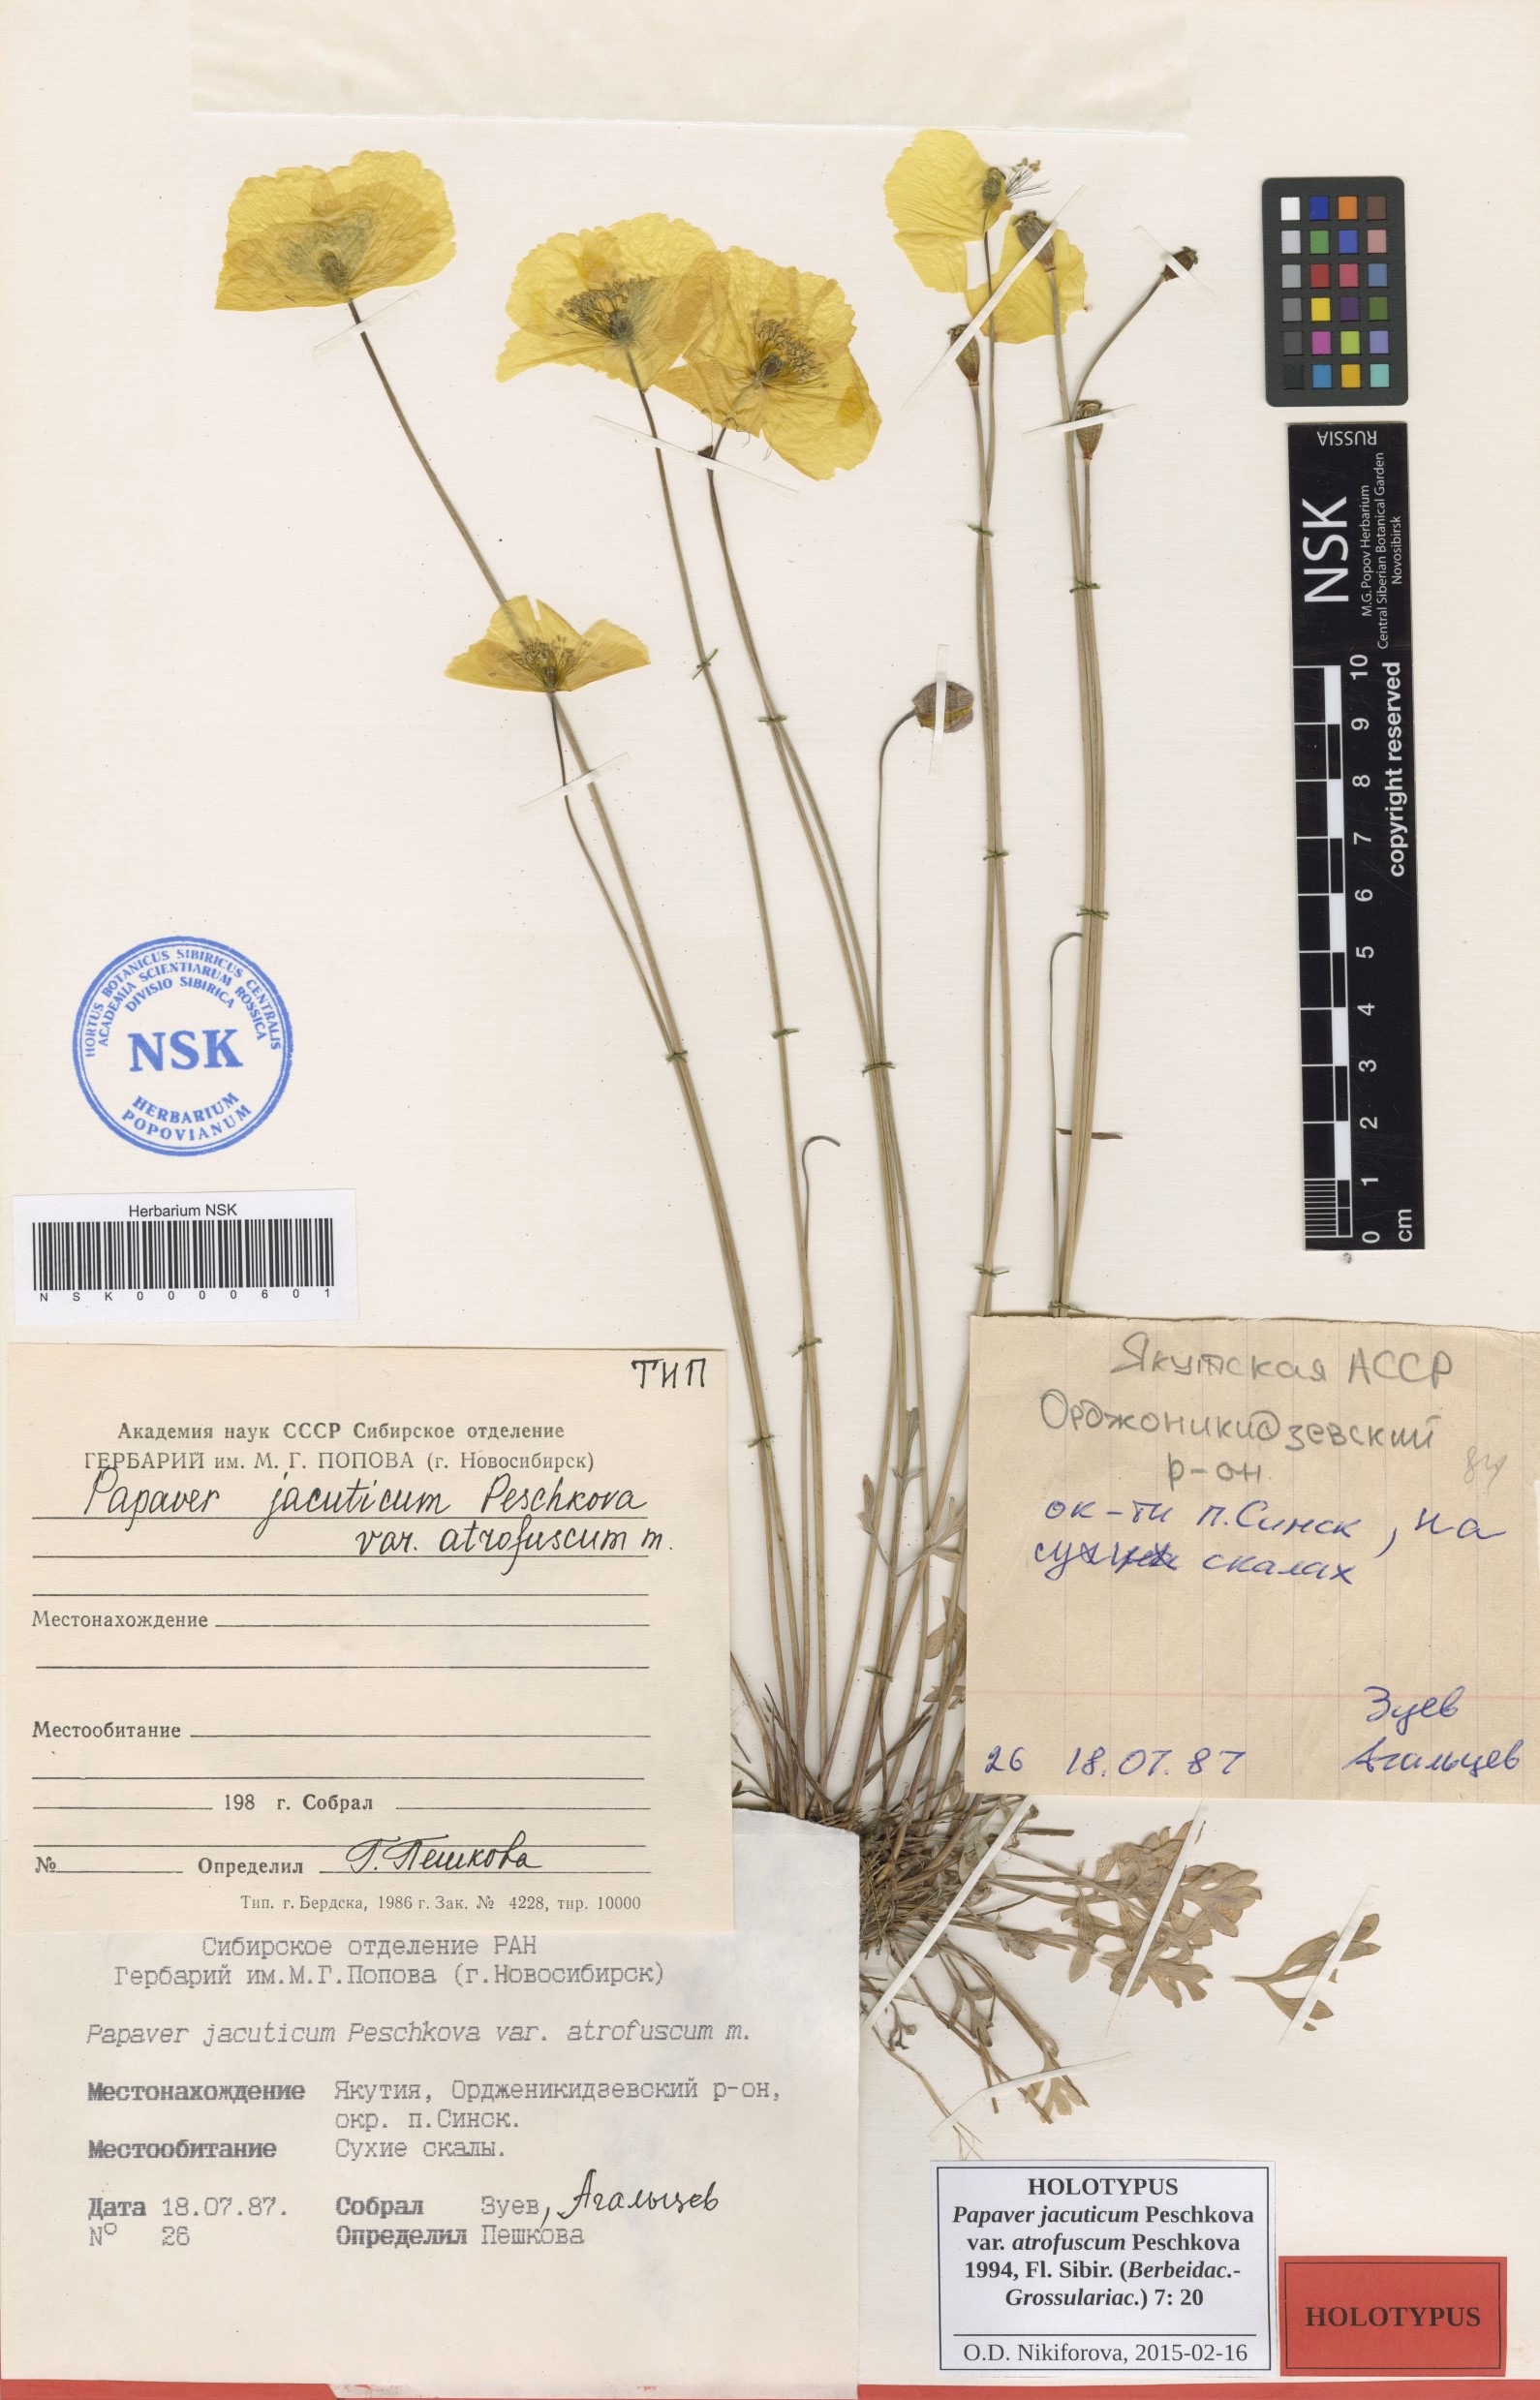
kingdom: Plantae
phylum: Tracheophyta
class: Magnoliopsida
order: Ranunculales
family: Papaveraceae
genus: Papaver
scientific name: Papaver jacuticum
